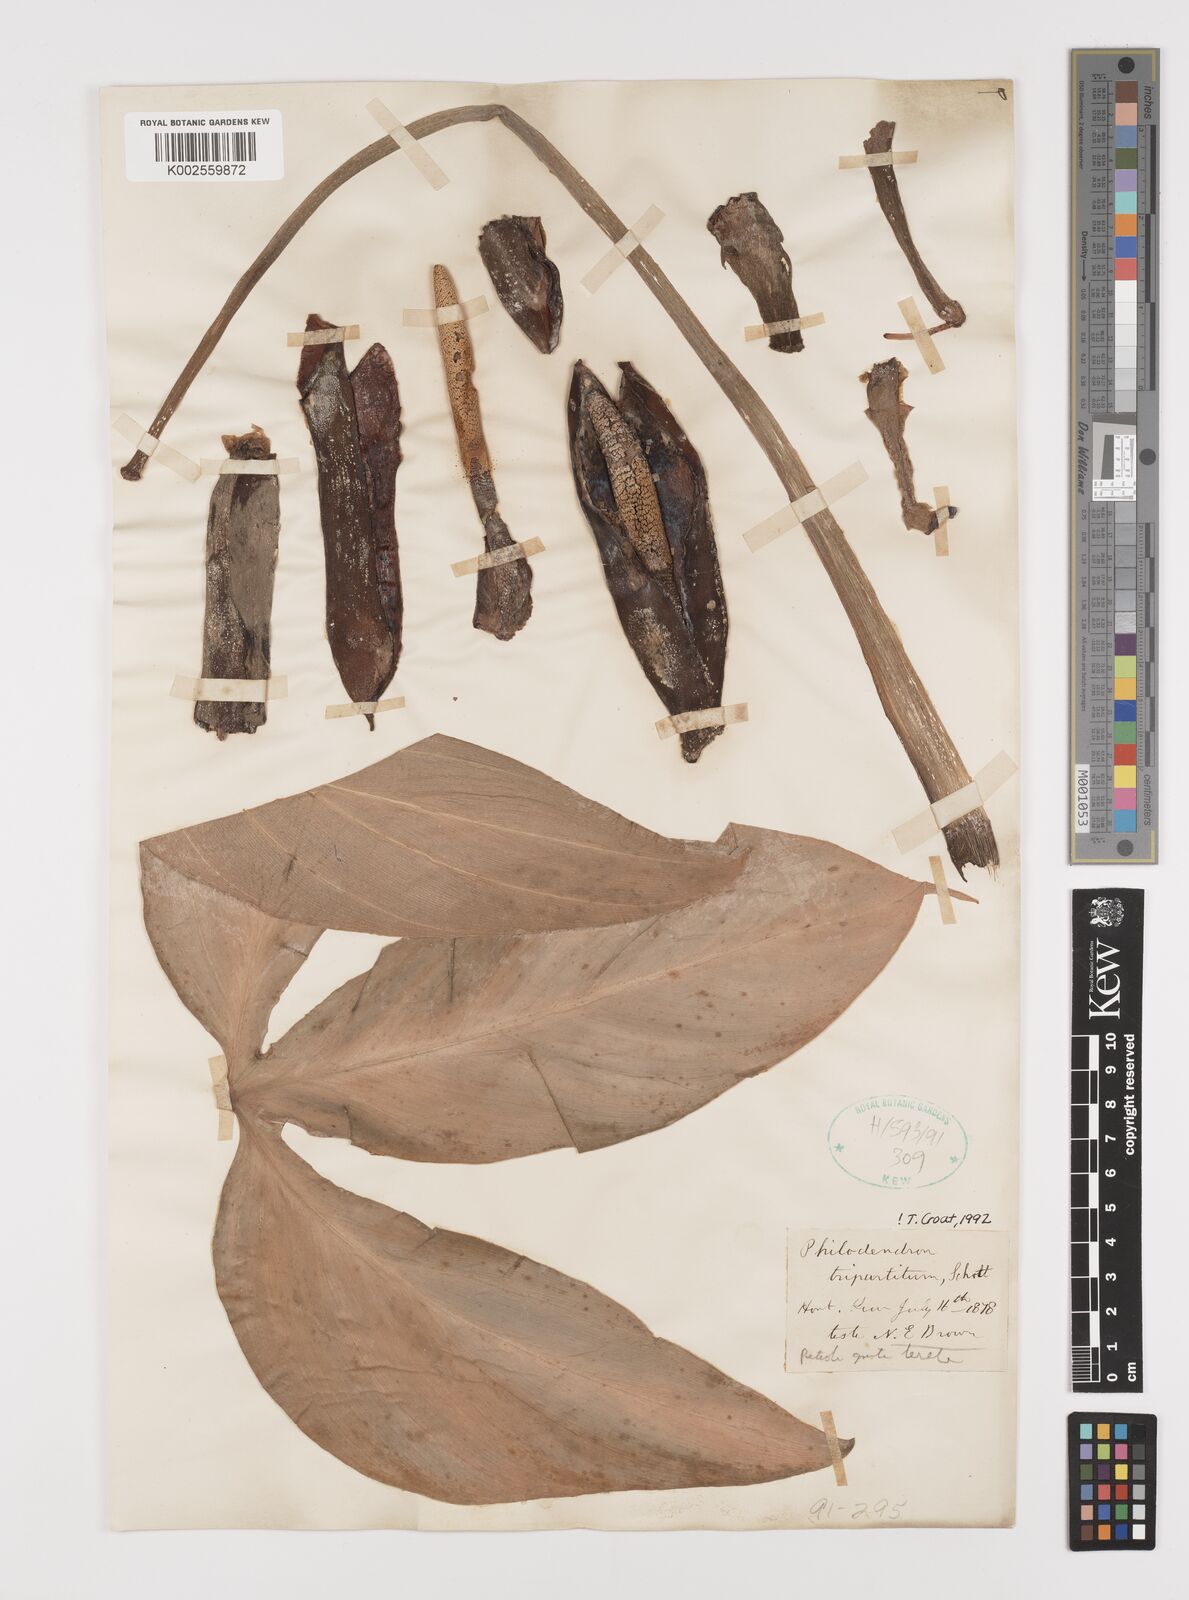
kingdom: Plantae
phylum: Tracheophyta
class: Liliopsida
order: Alismatales
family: Araceae
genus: Philodendron
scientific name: Philodendron tripartitum
